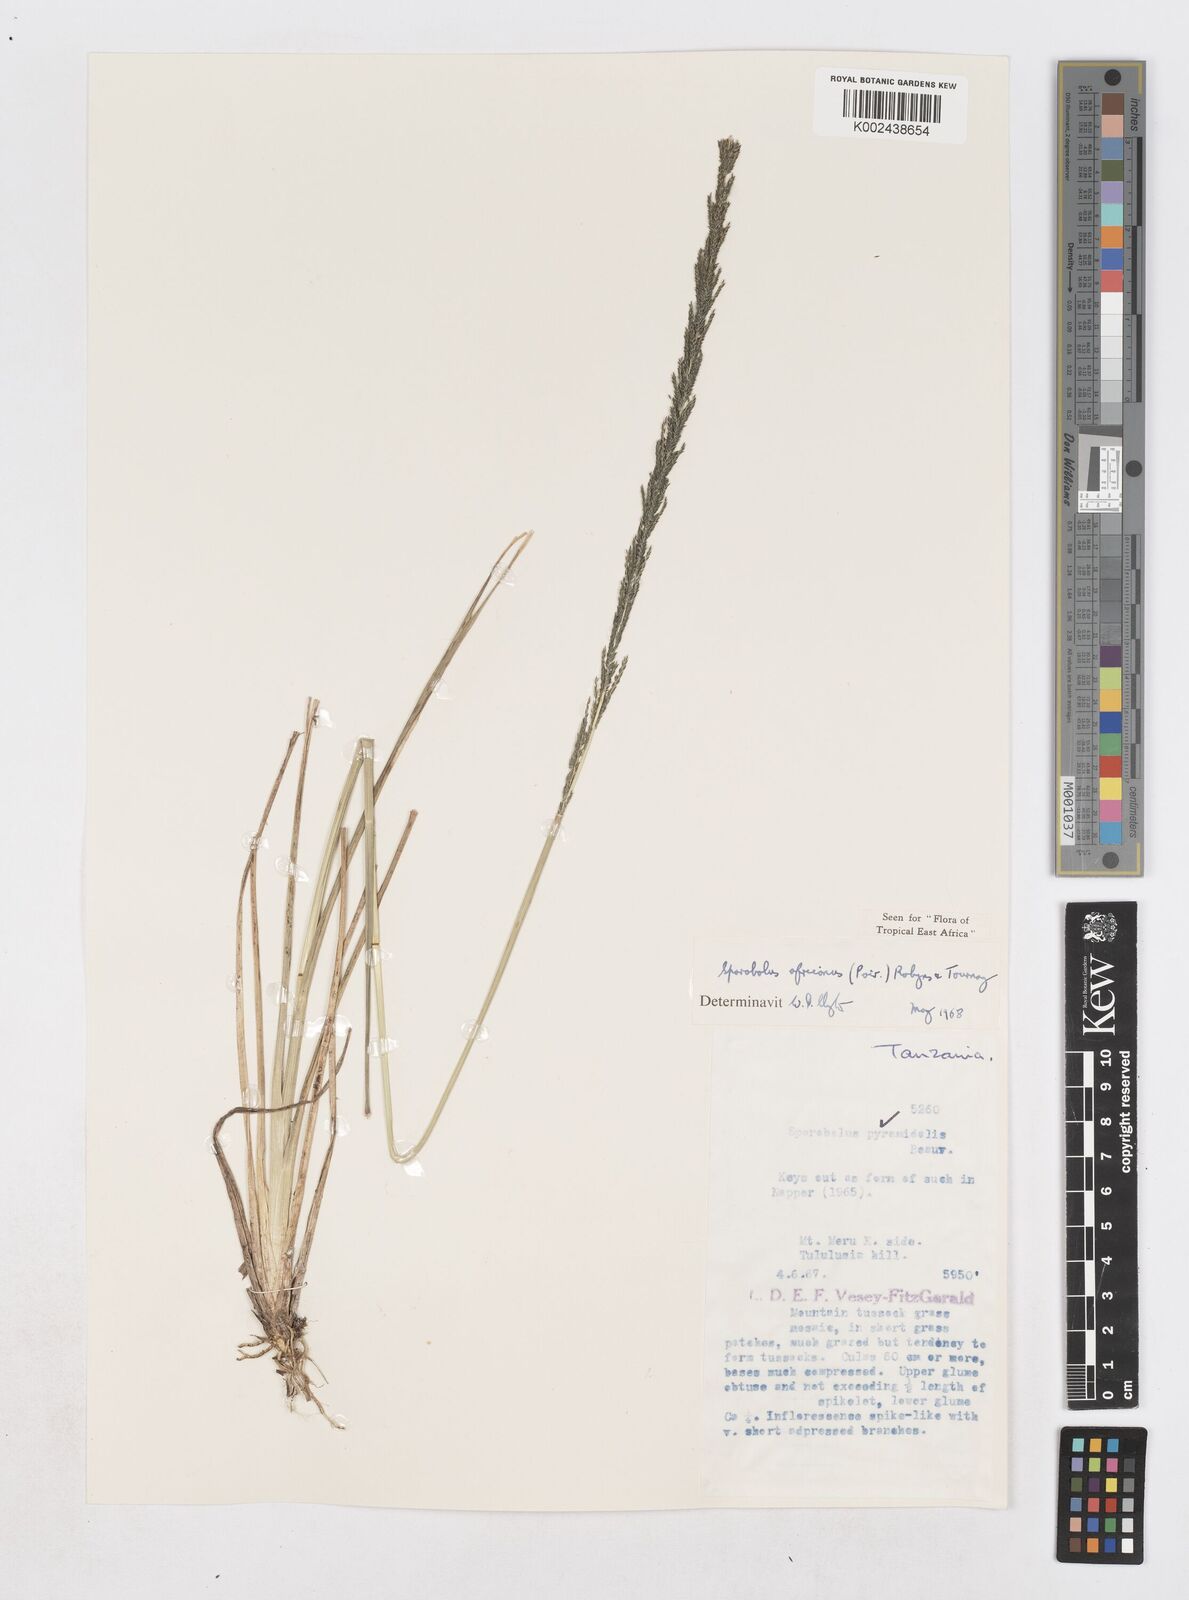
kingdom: Plantae
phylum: Tracheophyta
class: Liliopsida
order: Poales
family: Poaceae
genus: Sporobolus
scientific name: Sporobolus africanus
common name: African dropseed
